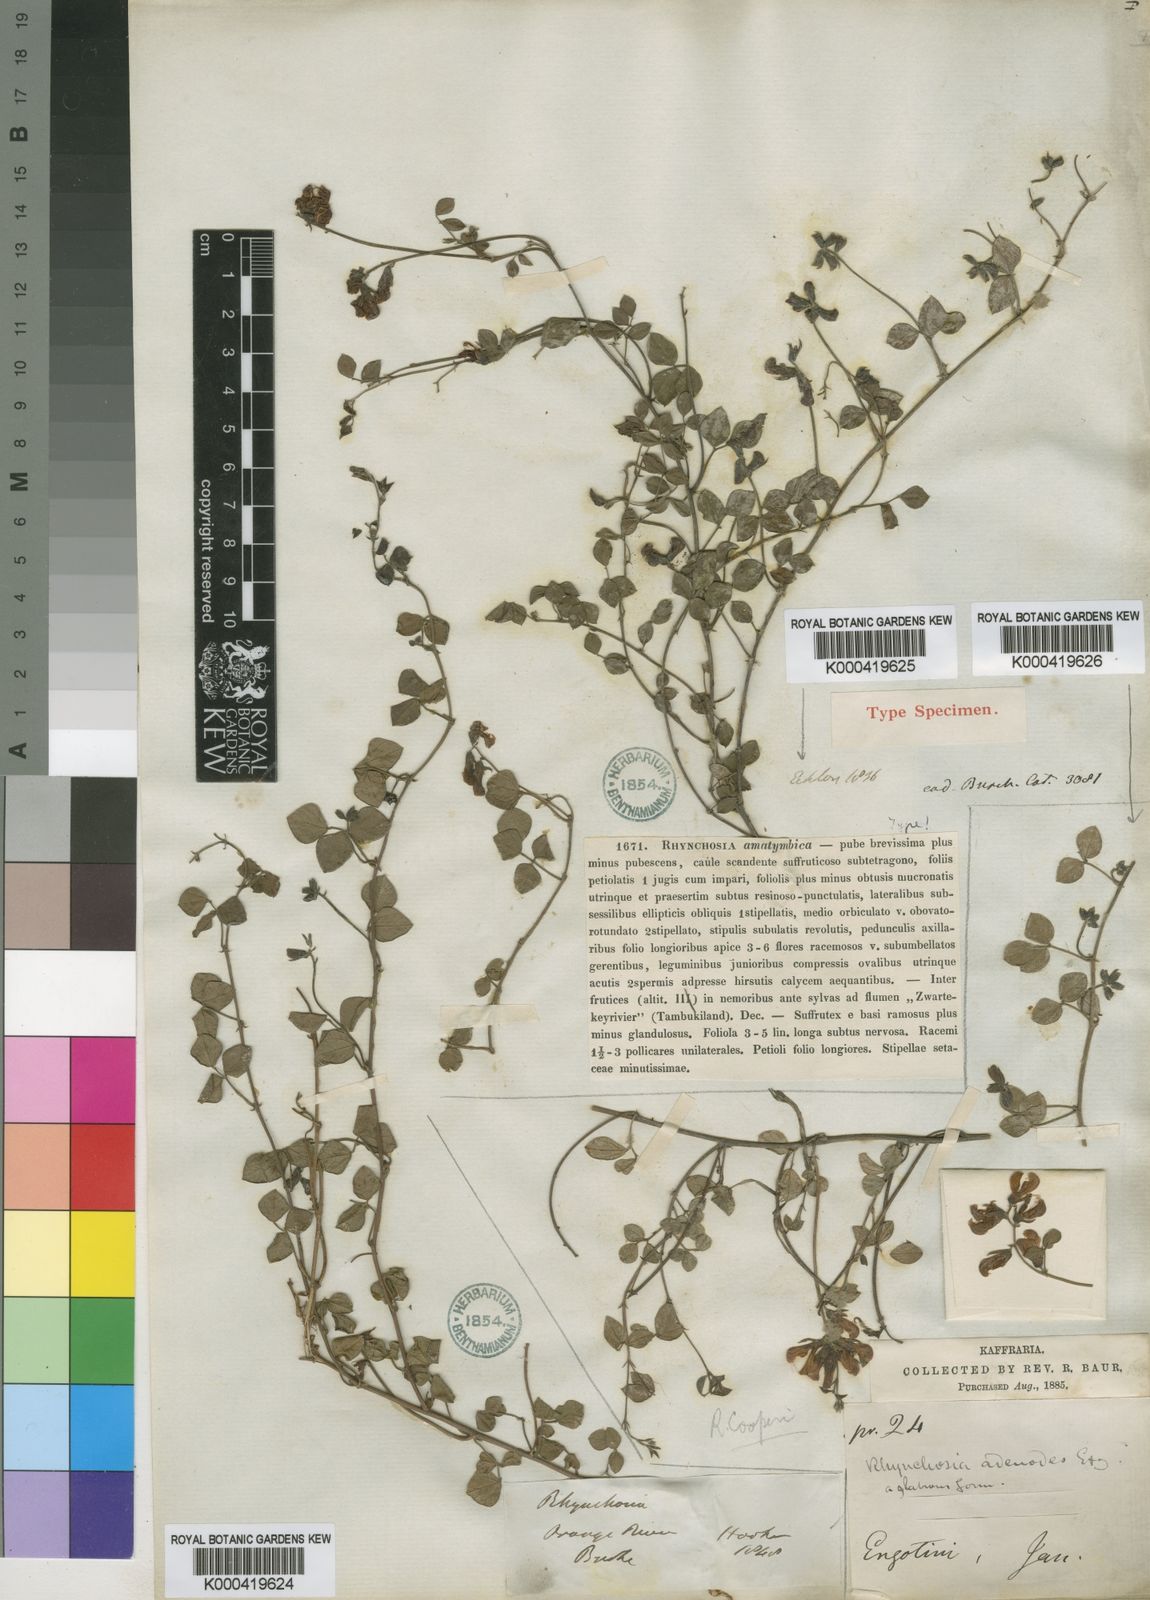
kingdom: Plantae
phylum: Tracheophyta
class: Magnoliopsida
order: Fabales
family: Fabaceae
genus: Rhynchosia
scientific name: Rhynchosia adenodes
